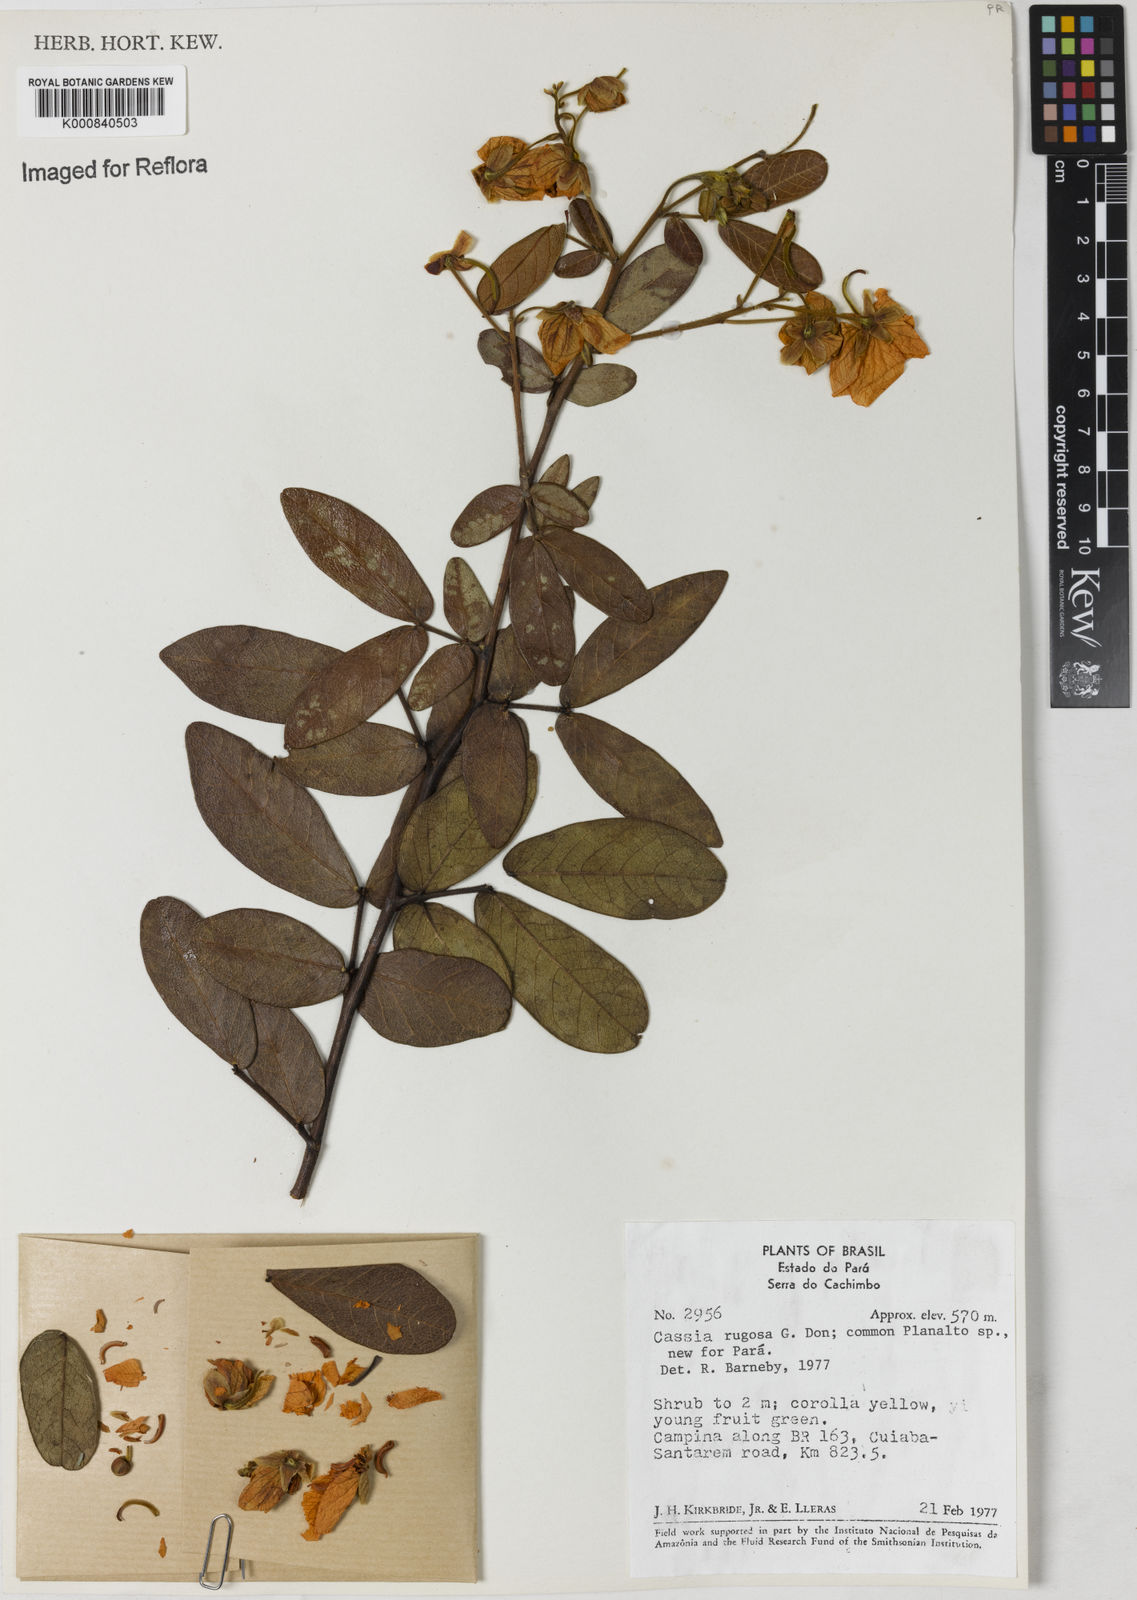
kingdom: Plantae
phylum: Tracheophyta
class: Magnoliopsida
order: Fabales
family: Fabaceae
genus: Senna
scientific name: Senna rugosa
